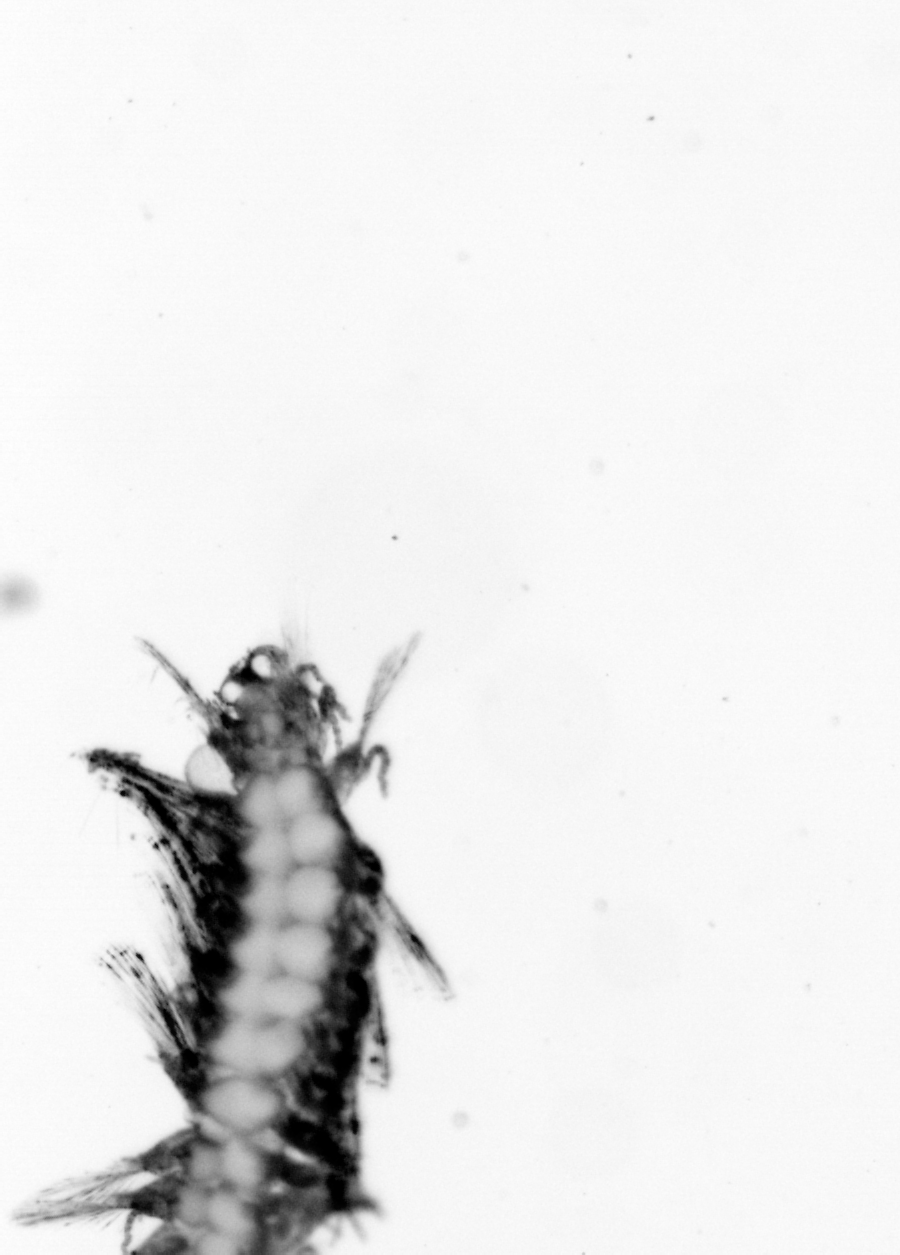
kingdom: Animalia
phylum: Annelida
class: Polychaeta
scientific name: Polychaeta
